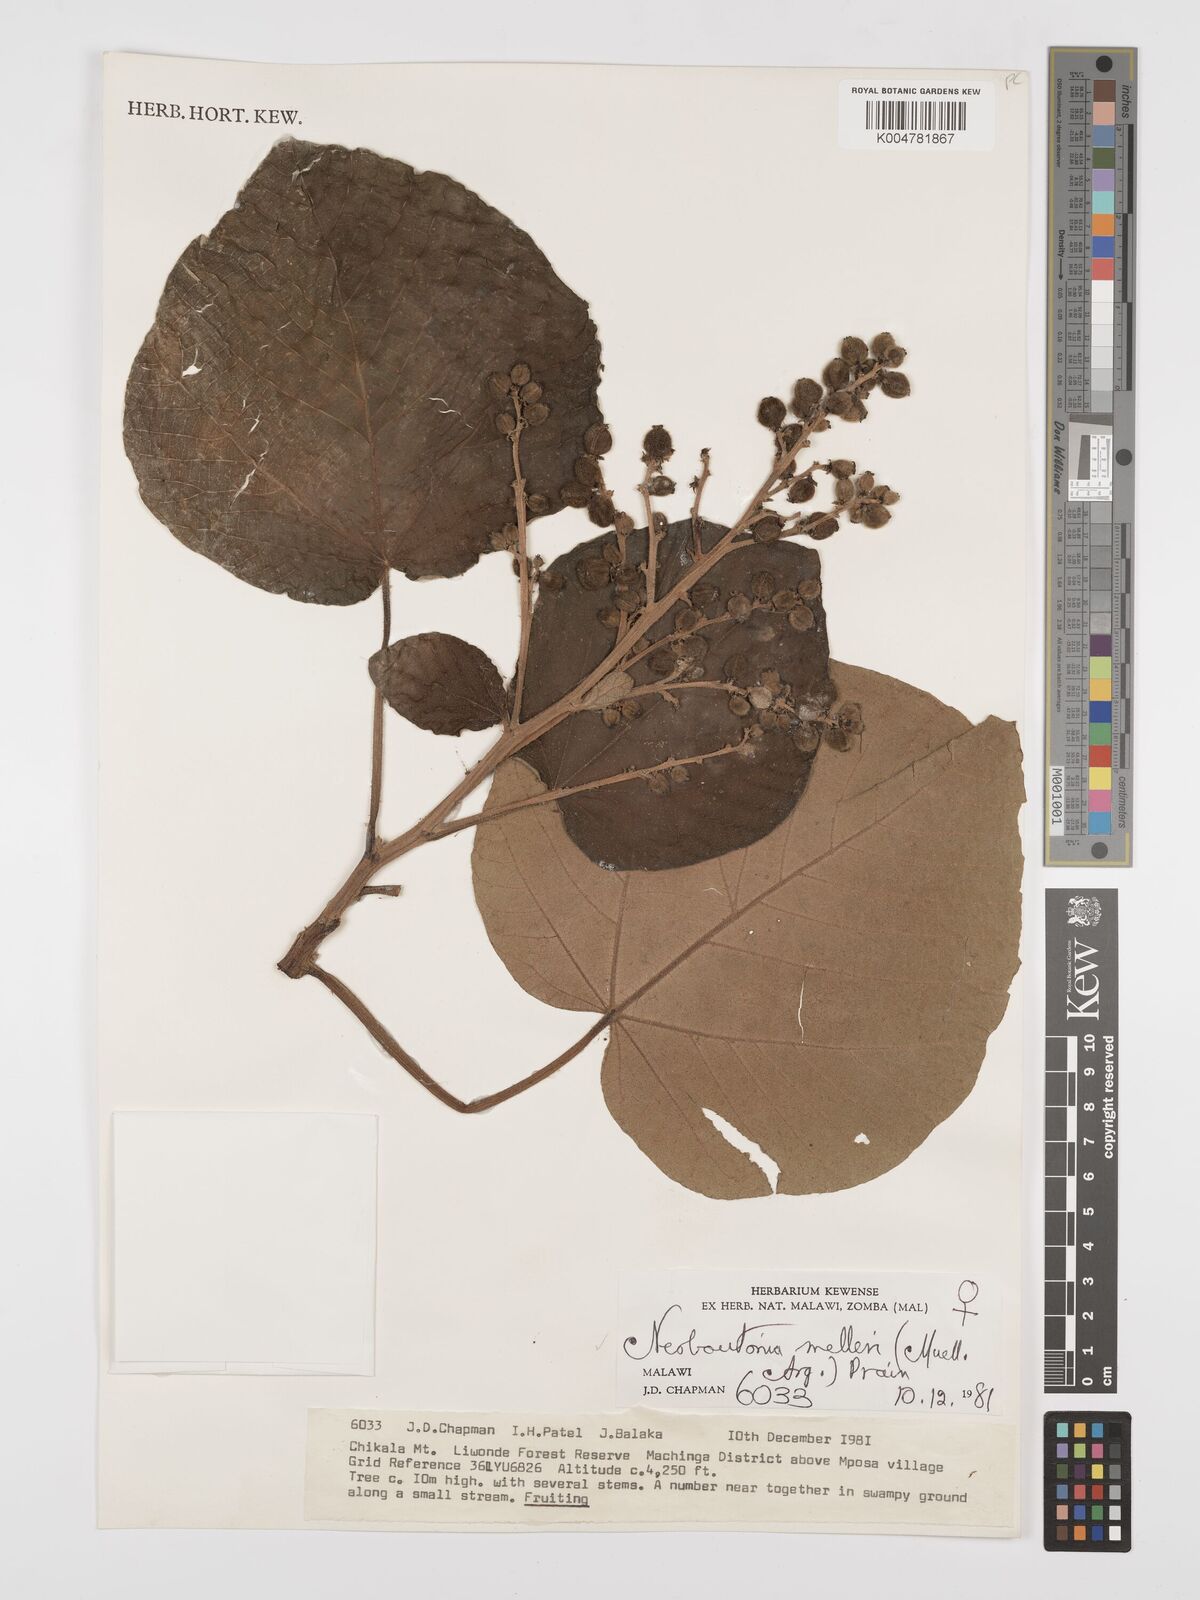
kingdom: Plantae
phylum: Tracheophyta
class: Magnoliopsida
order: Malpighiales
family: Euphorbiaceae
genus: Neoboutonia
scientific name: Neoboutonia melleri
